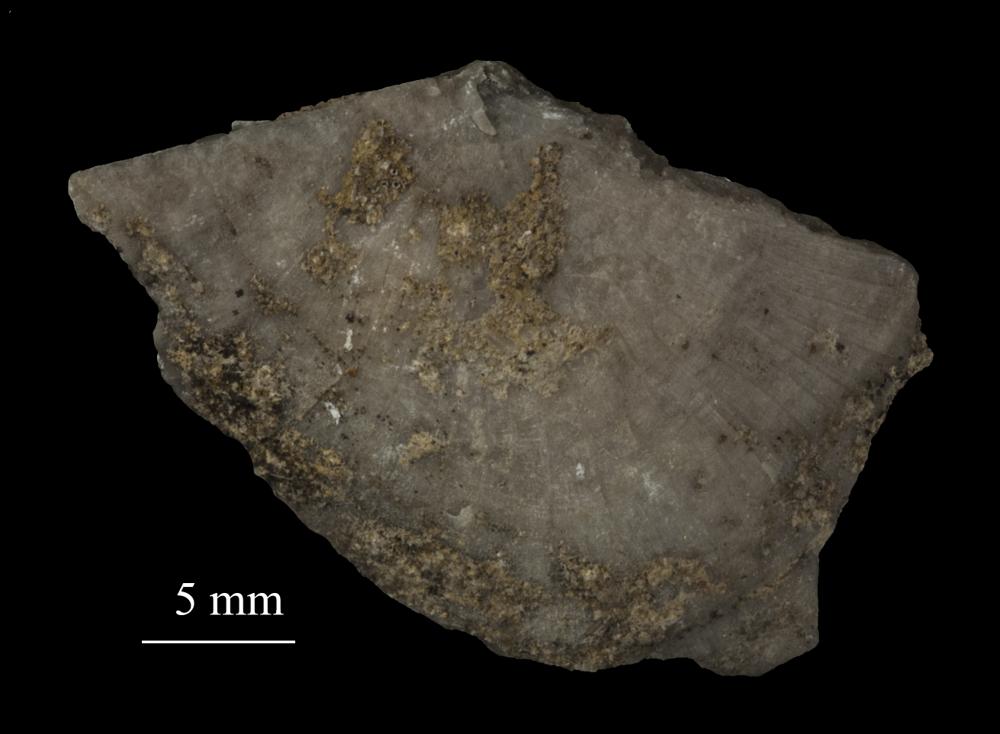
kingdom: Animalia
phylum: Brachiopoda
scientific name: Brachiopoda
